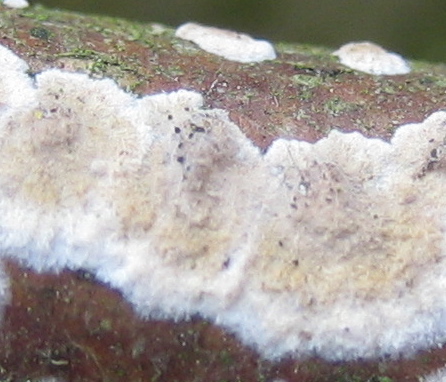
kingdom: Fungi
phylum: Basidiomycota
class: Agaricomycetes
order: Corticiales
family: Corticiaceae
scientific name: Corticiaceae
